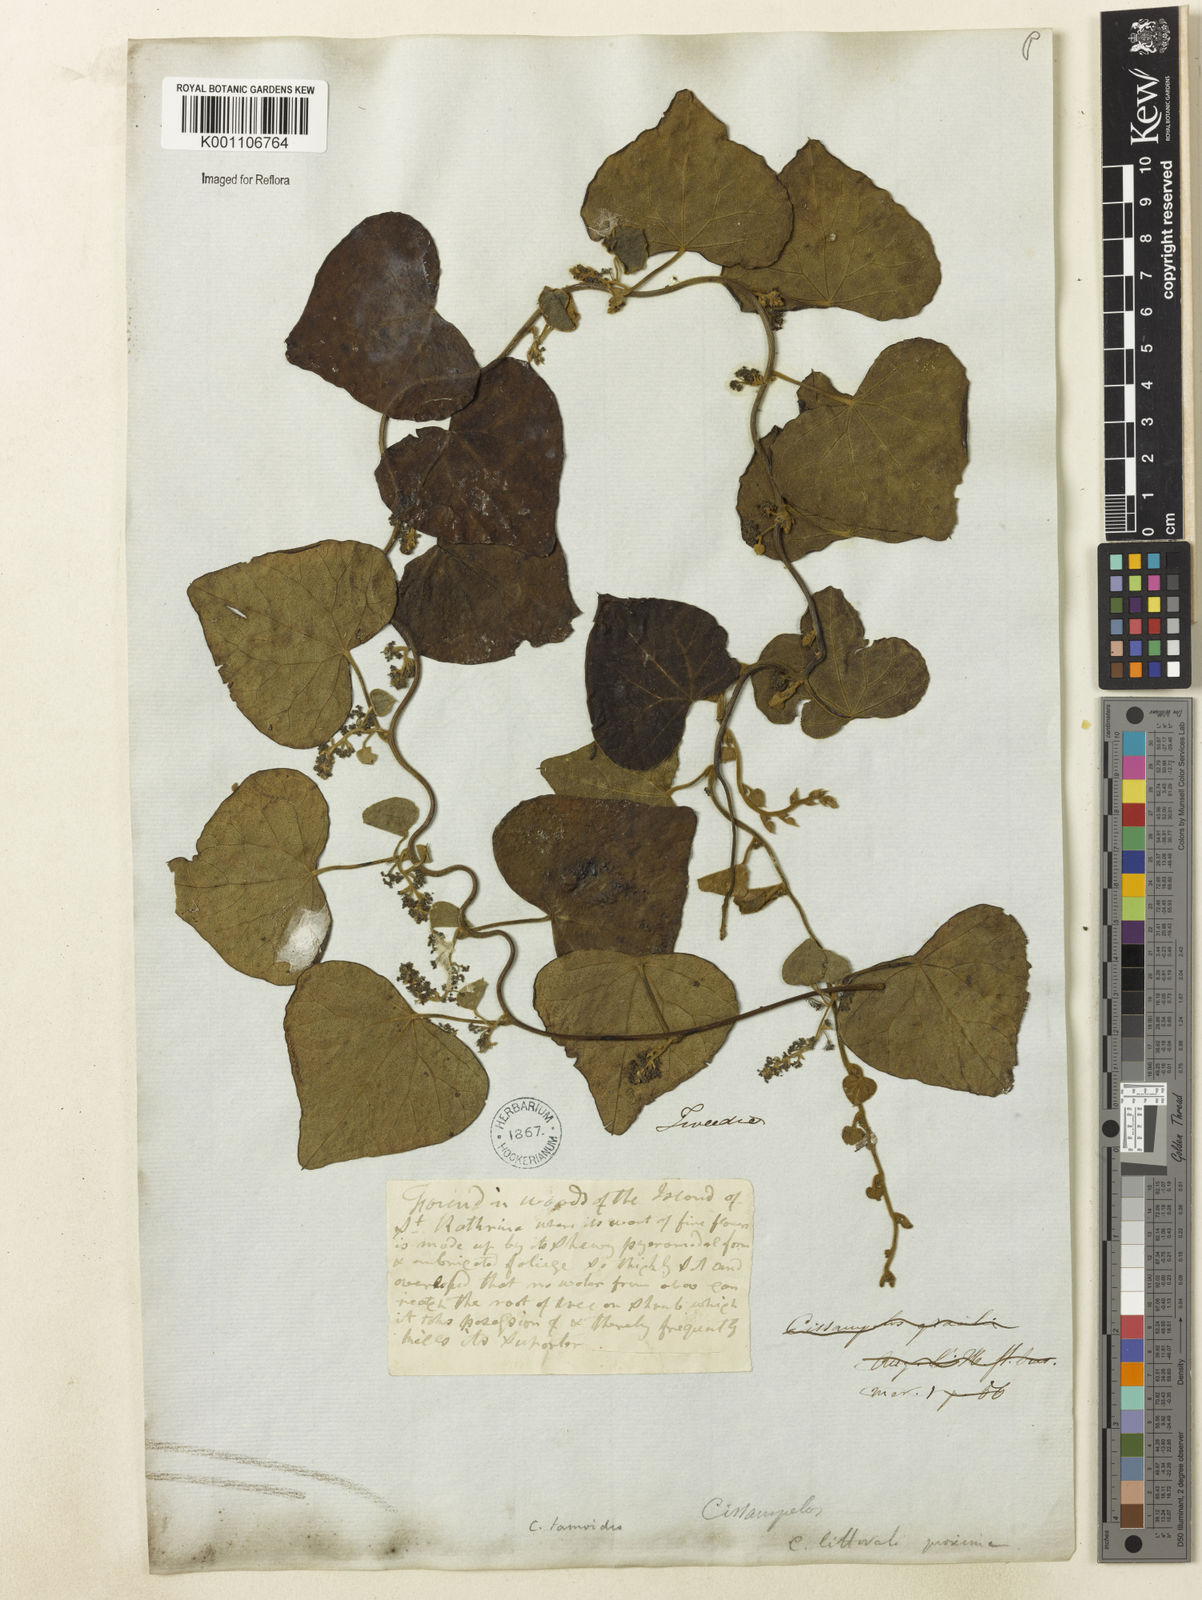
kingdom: Plantae
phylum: Tracheophyta
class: Magnoliopsida
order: Ranunculales
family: Menispermaceae
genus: Cissampelos
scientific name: Cissampelos pareira
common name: Velvetleaf
